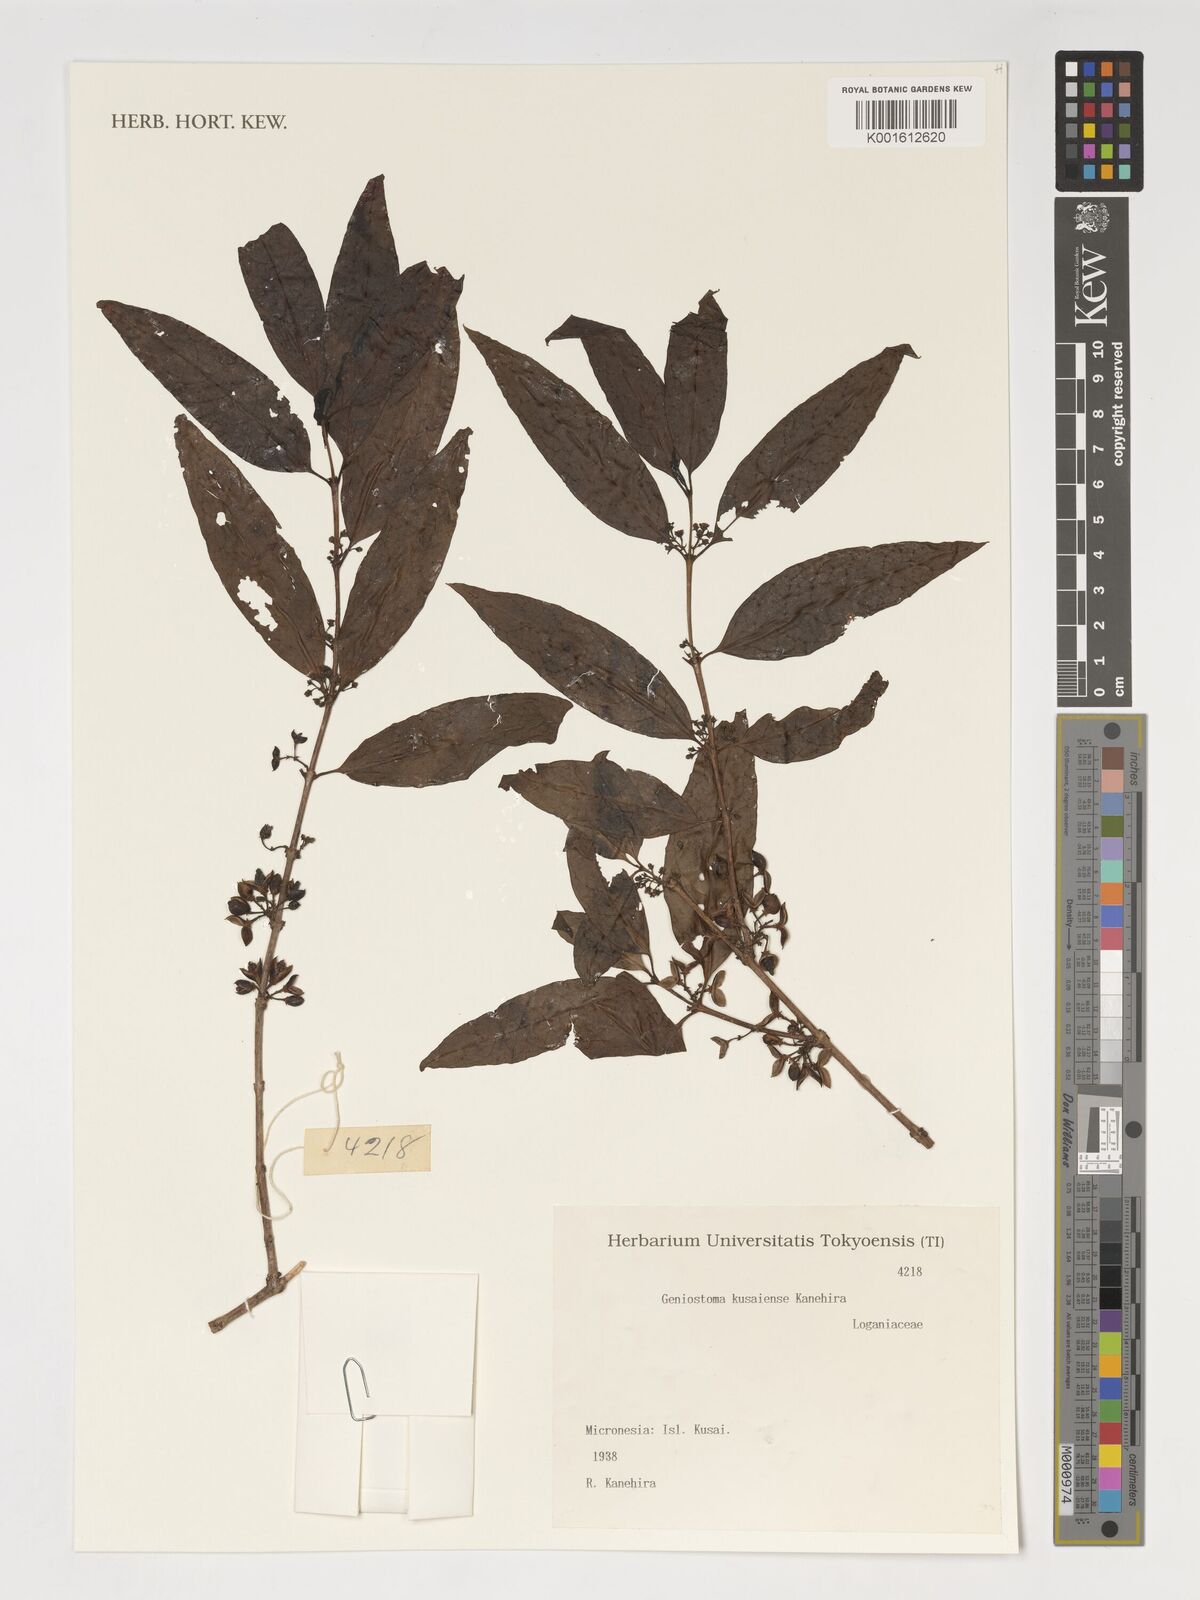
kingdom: Plantae
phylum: Tracheophyta
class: Magnoliopsida
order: Gentianales
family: Loganiaceae
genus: Geniostoma
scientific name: Geniostoma rupestre
